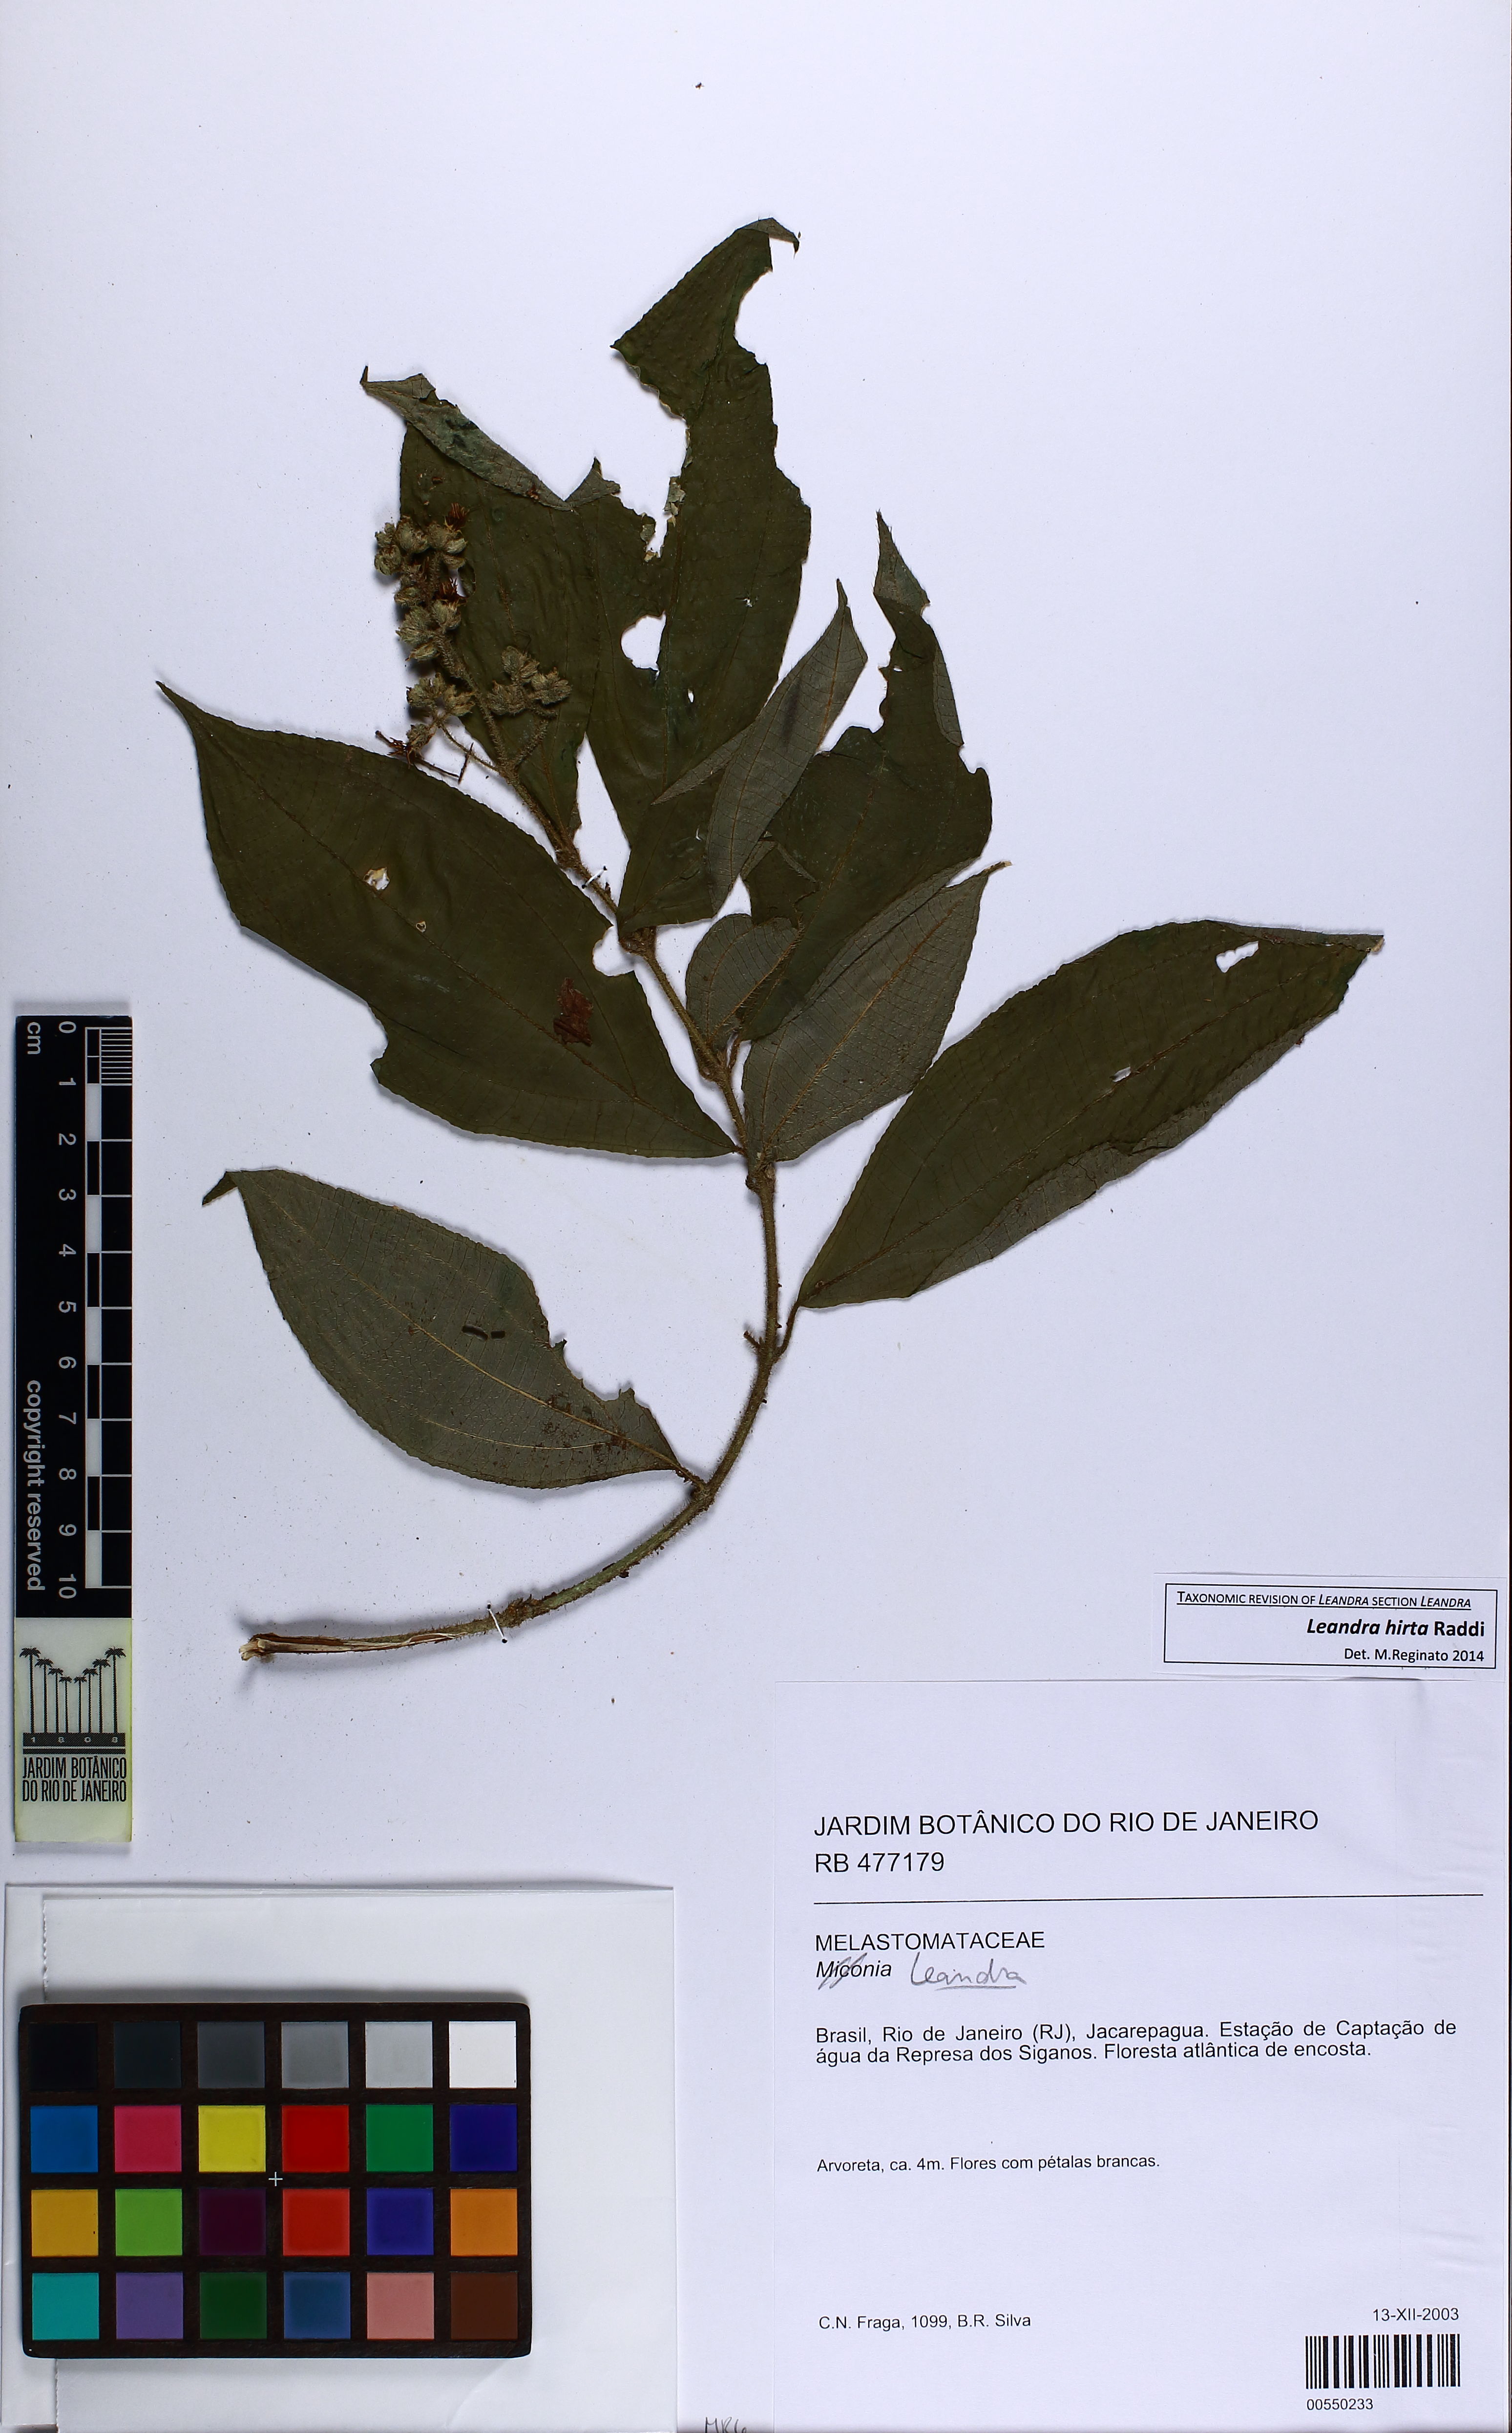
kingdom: Plantae
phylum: Tracheophyta
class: Magnoliopsida
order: Myrtales
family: Melastomataceae
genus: Miconia
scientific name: Miconia dubia
